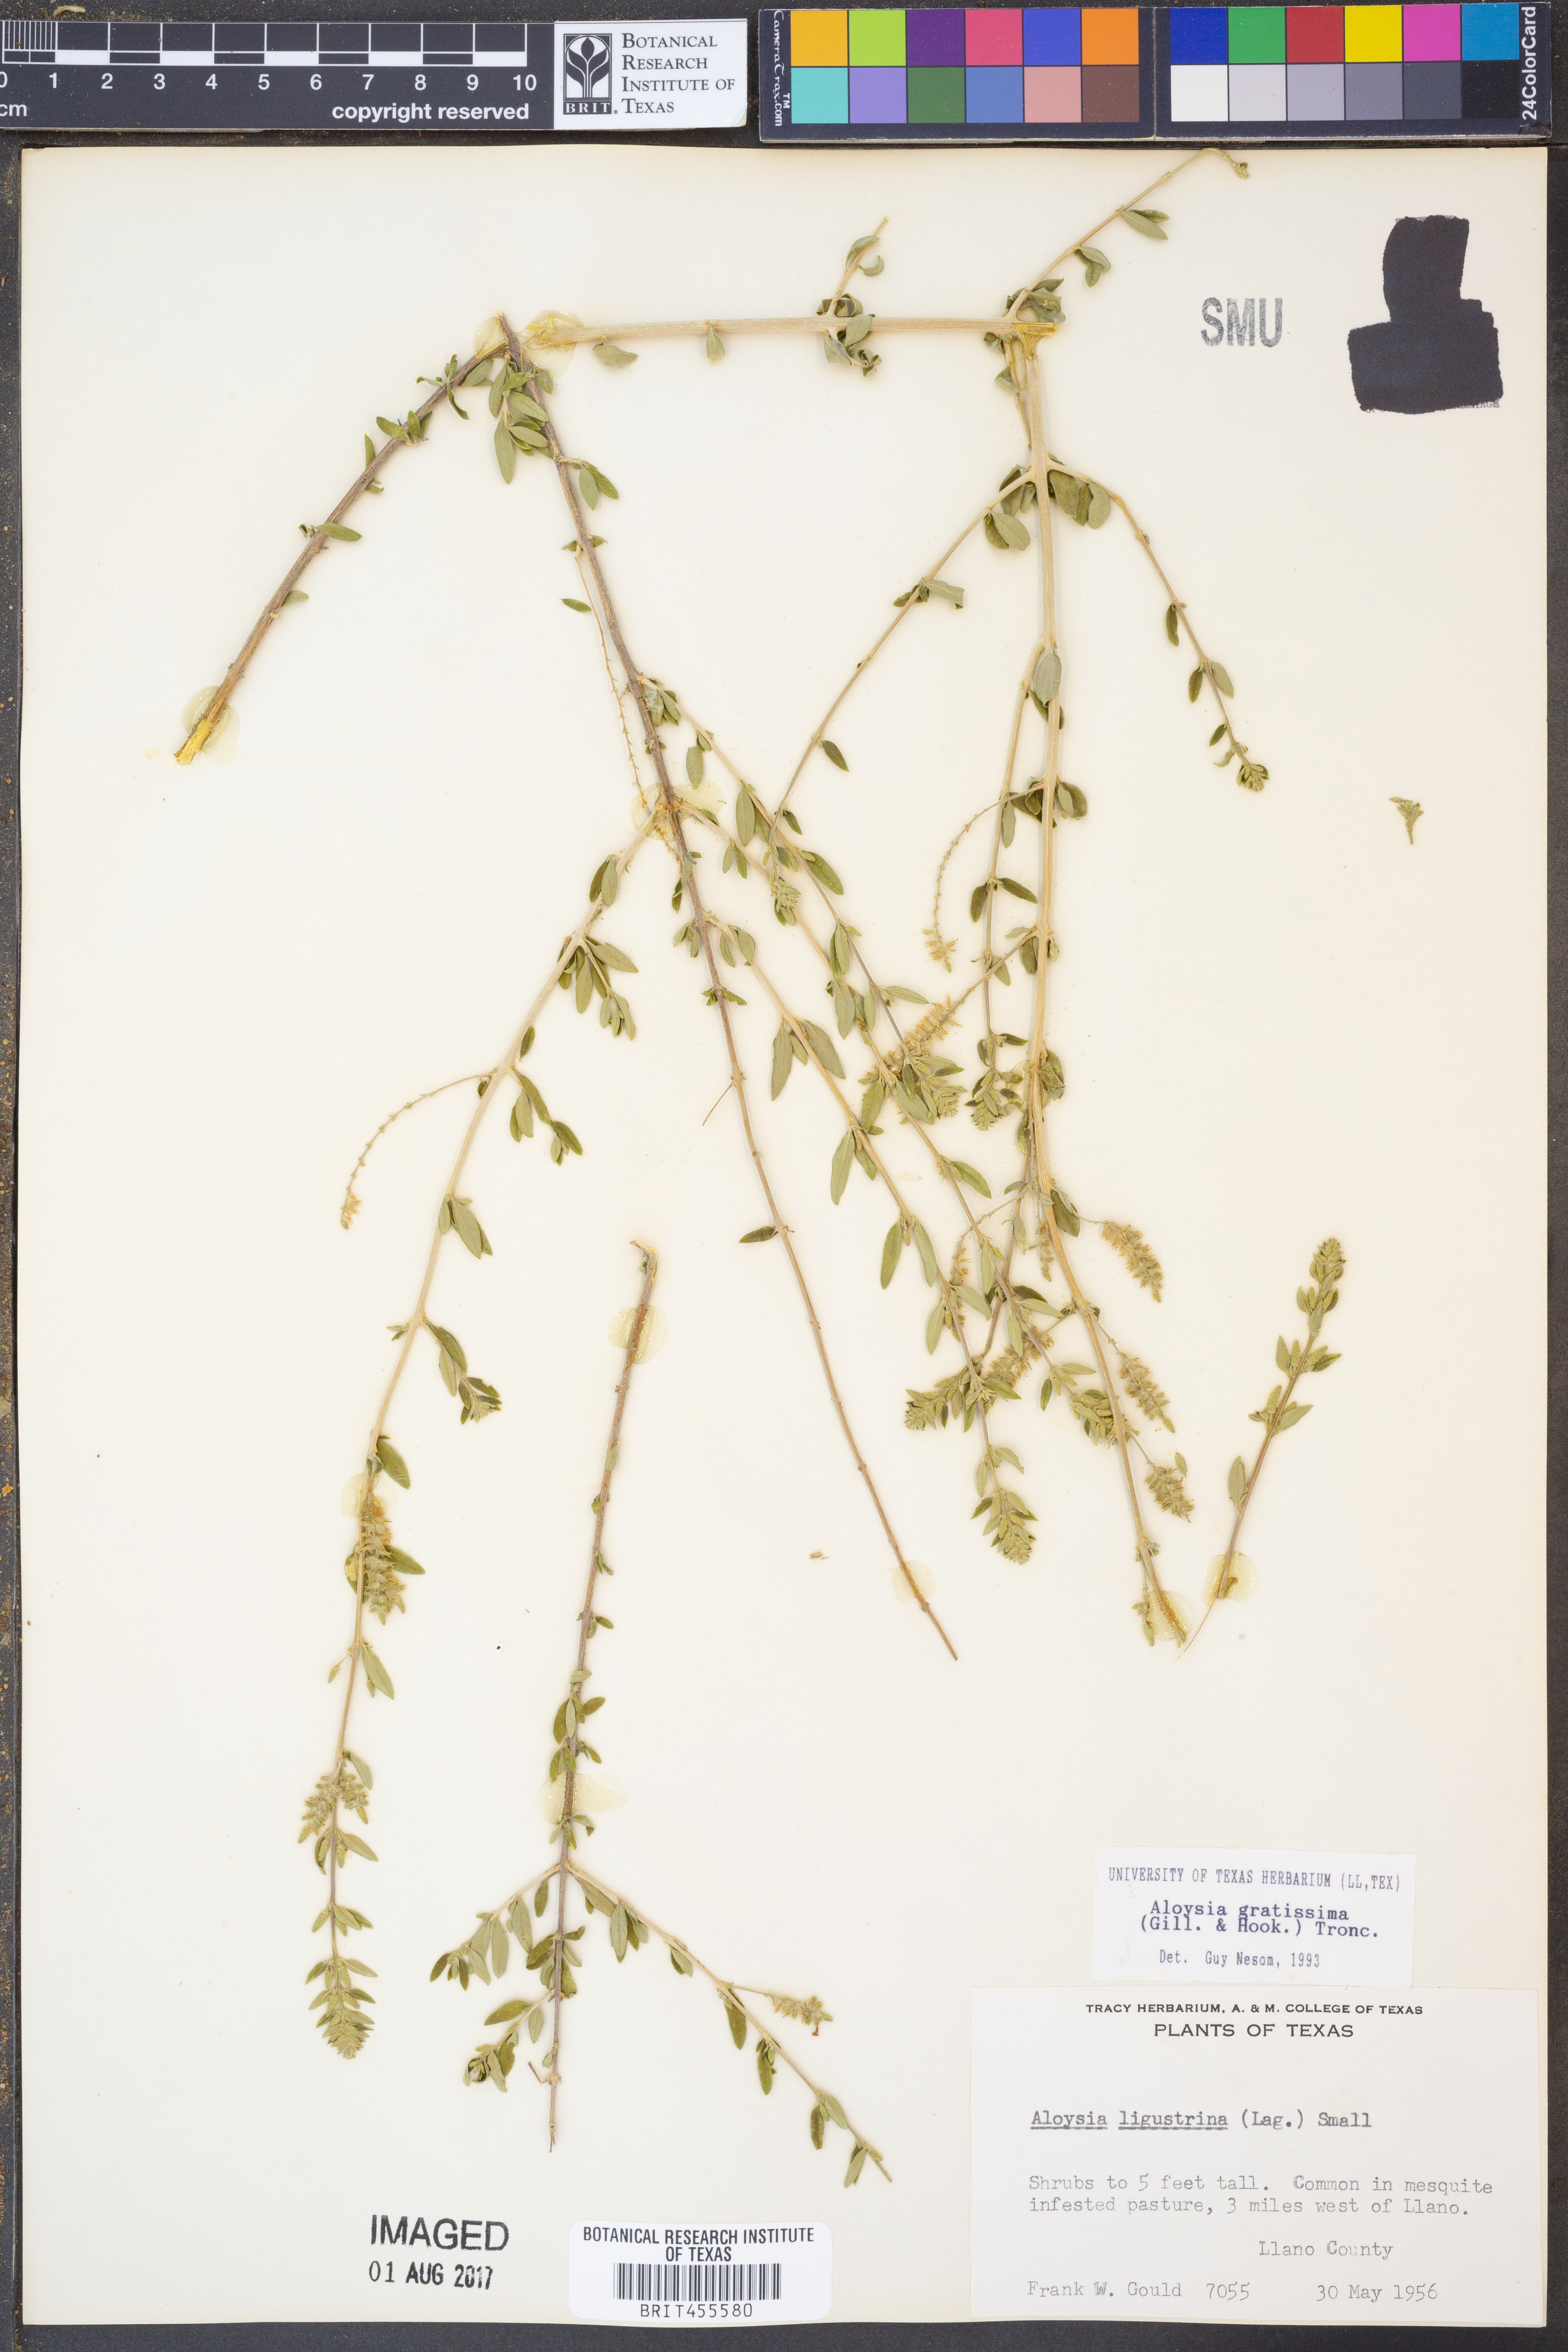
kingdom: Plantae
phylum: Tracheophyta
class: Magnoliopsida
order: Lamiales
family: Verbenaceae
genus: Aloysia
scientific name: Aloysia gratissima
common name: Common bee-brush
